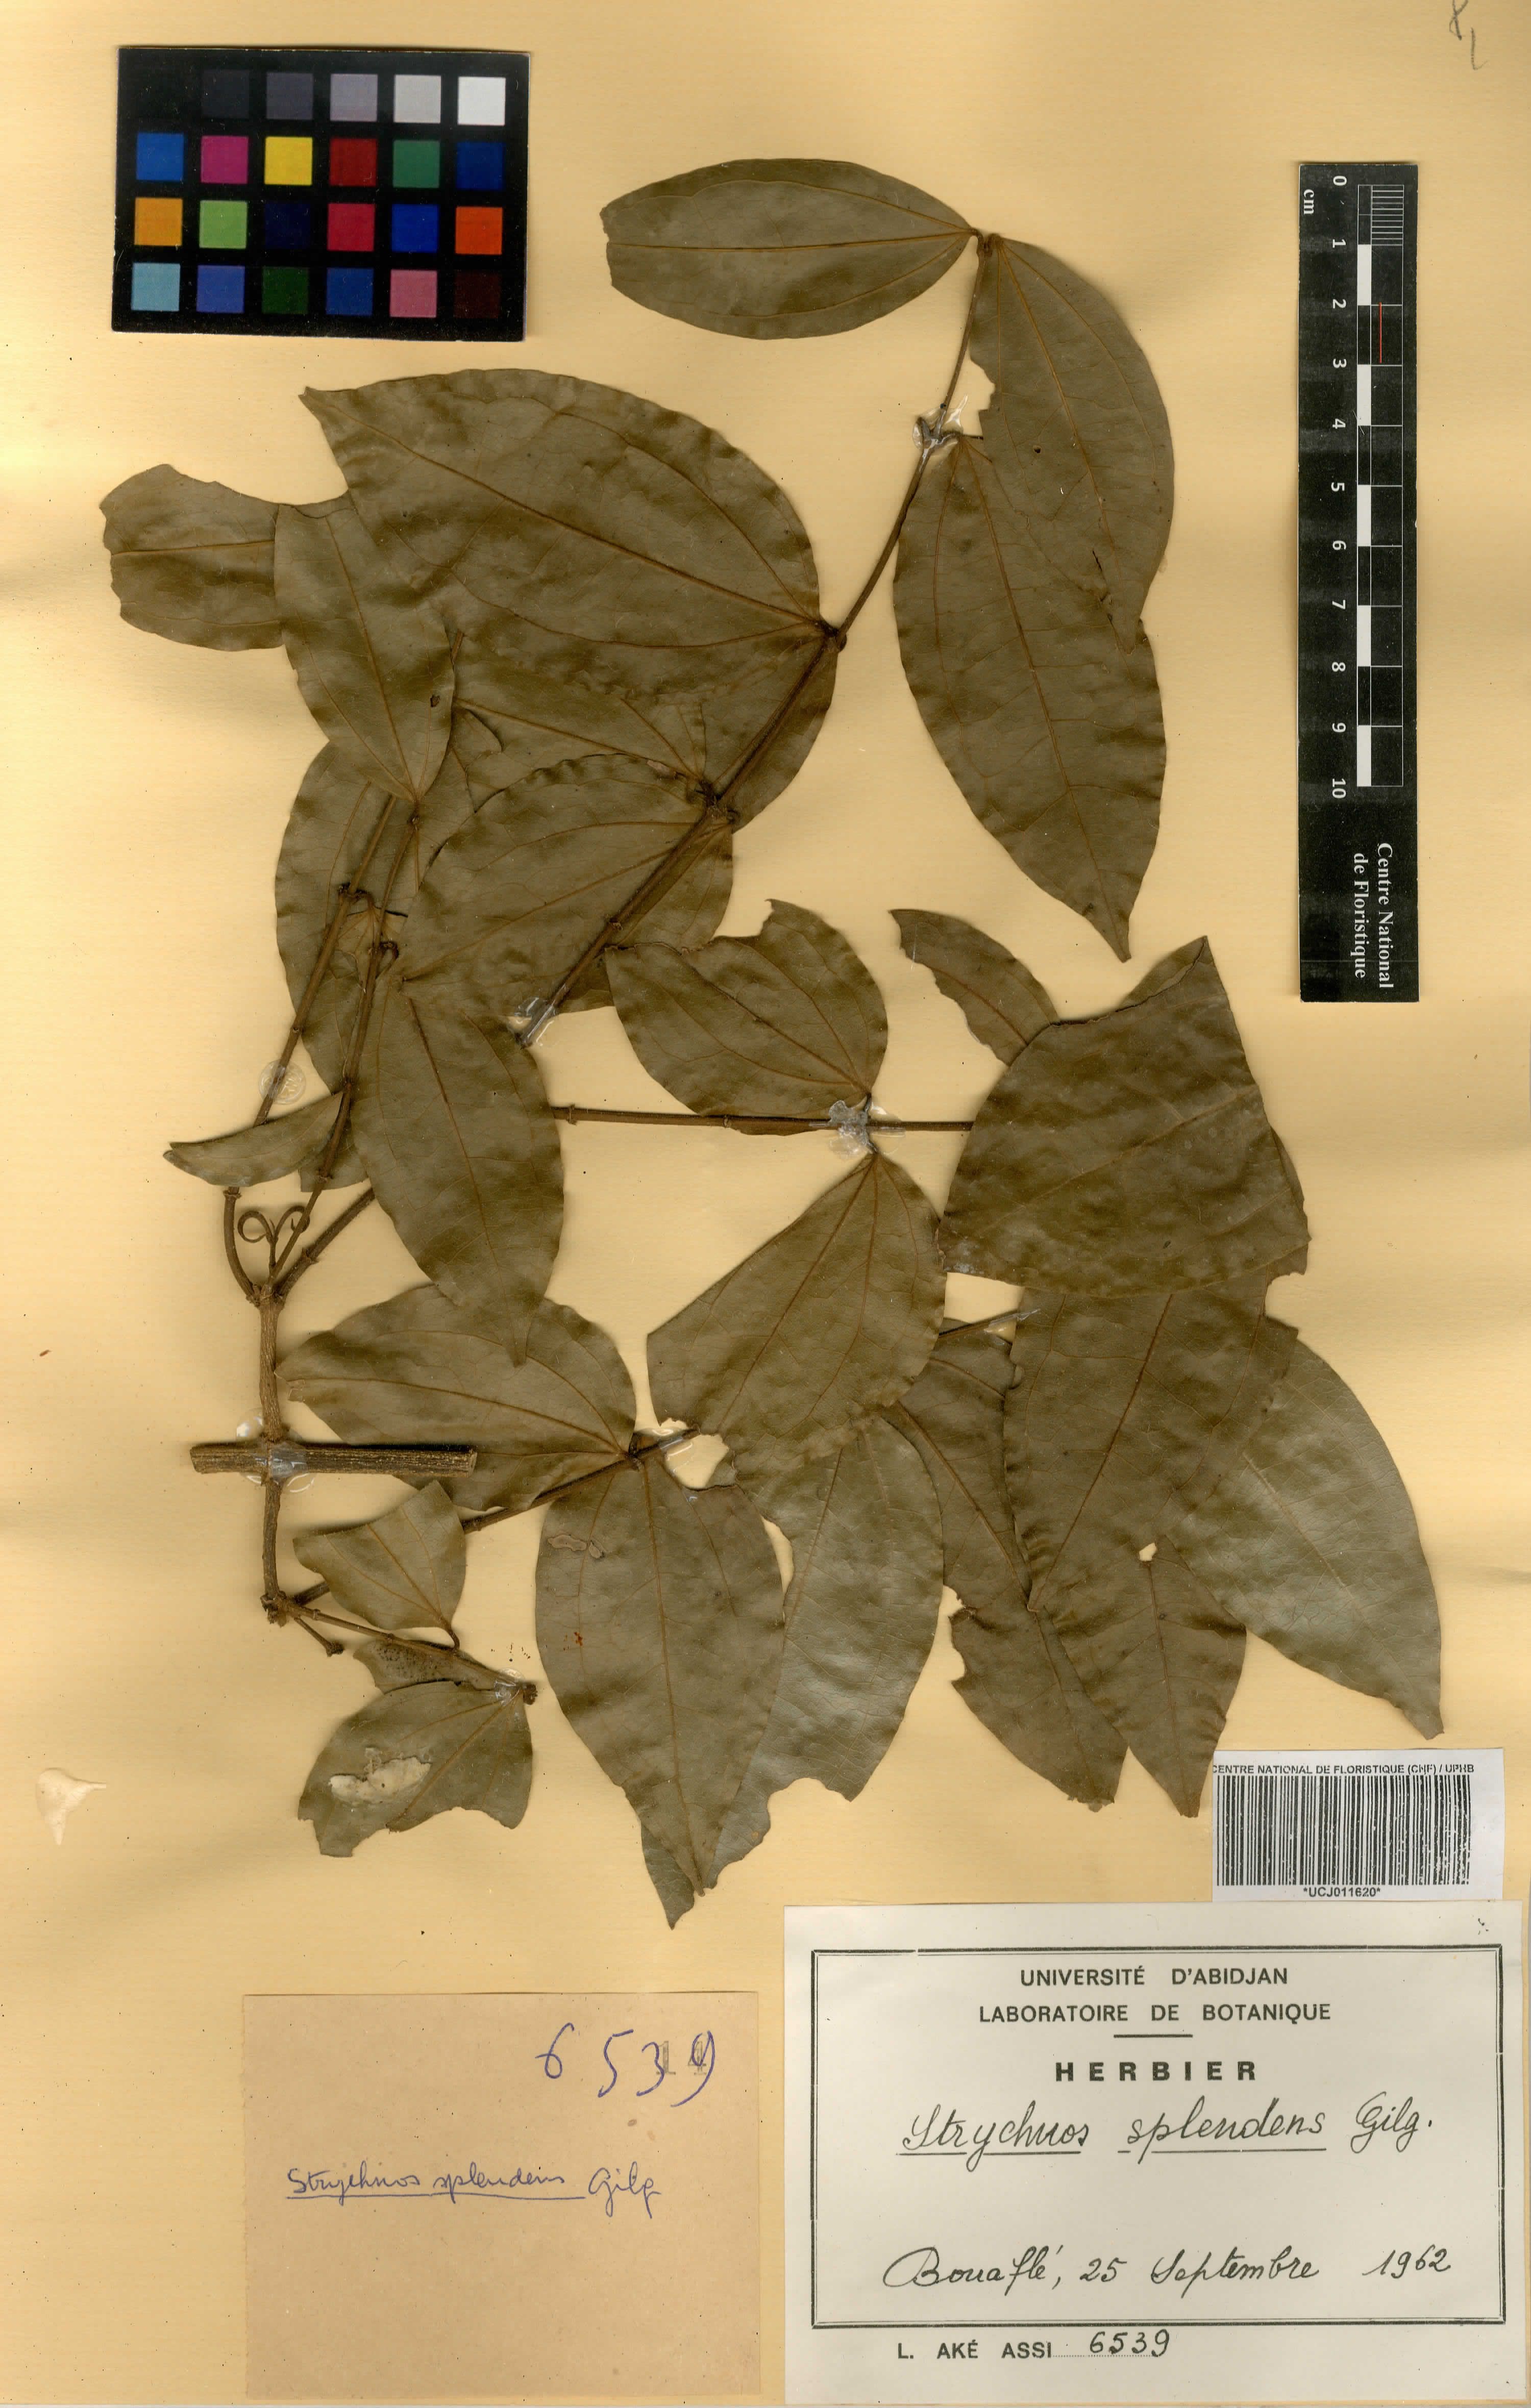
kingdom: Plantae
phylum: Tracheophyta
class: Magnoliopsida
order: Gentianales
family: Loganiaceae
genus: Strychnos
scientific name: Strychnos splendens
